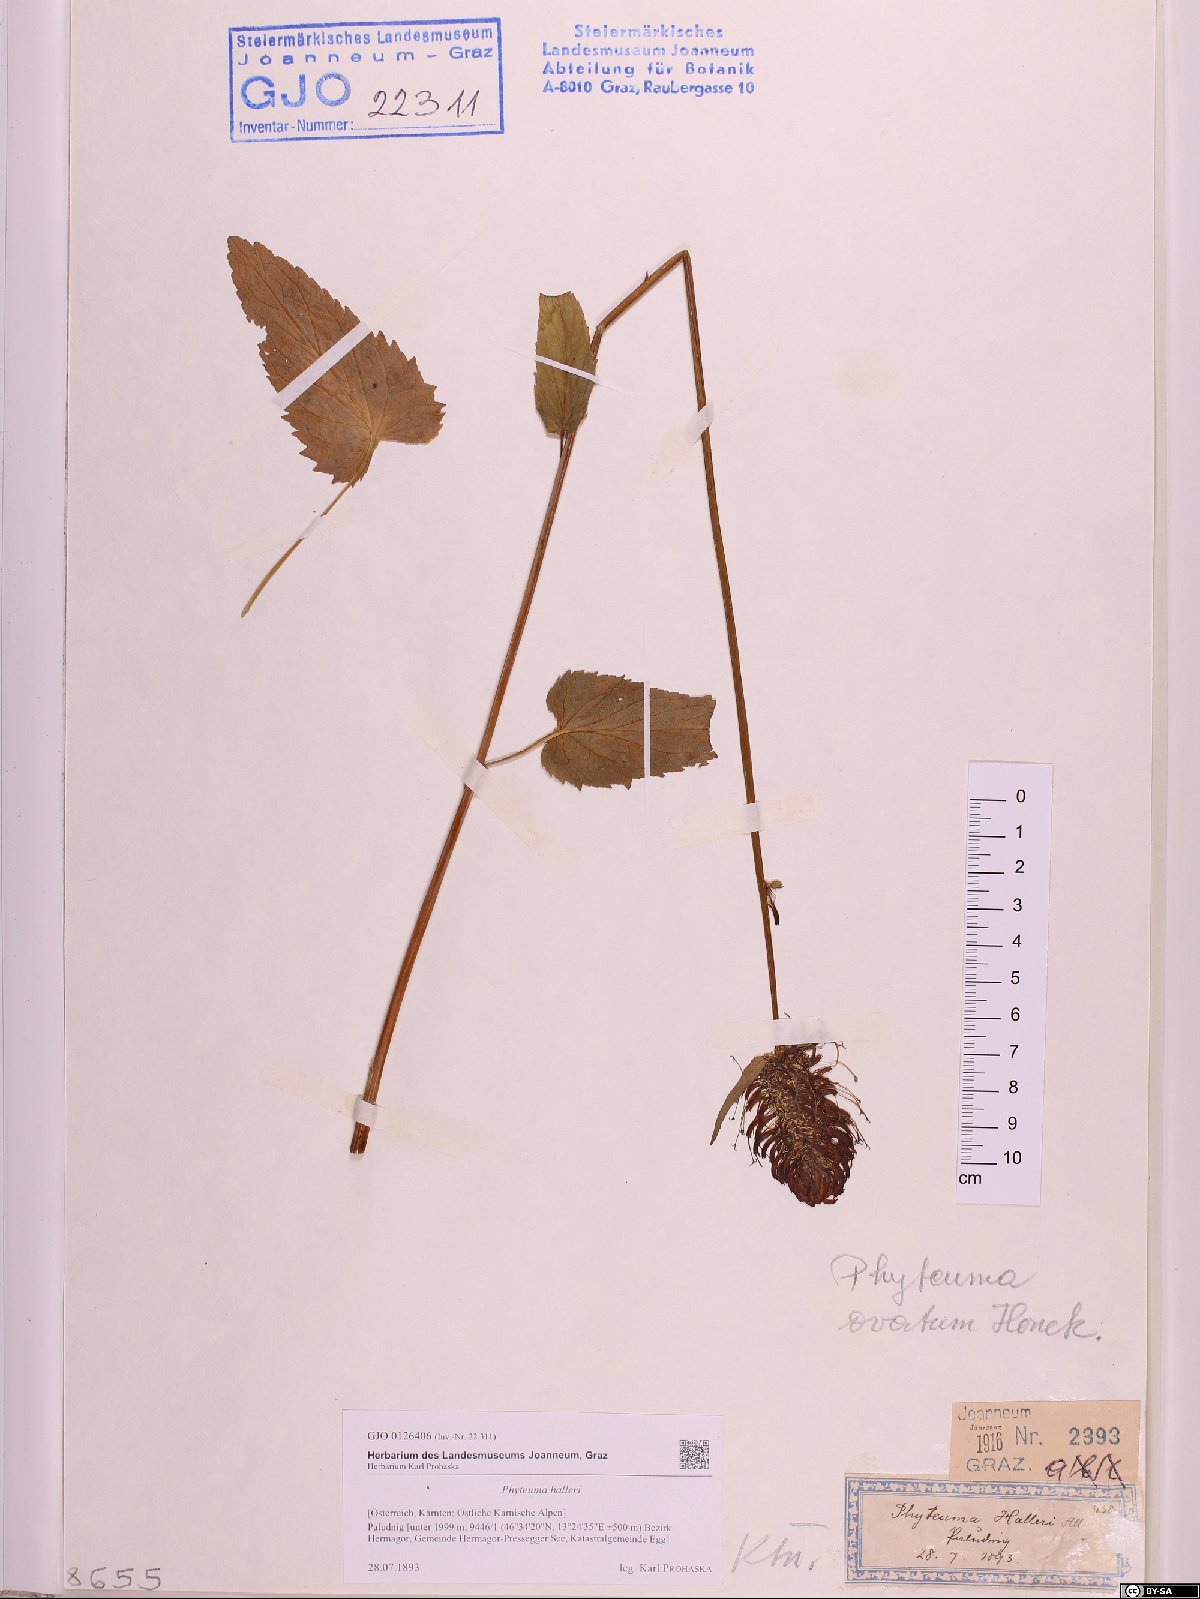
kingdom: Plantae
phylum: Tracheophyta
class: Magnoliopsida
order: Asterales
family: Campanulaceae
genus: Phyteuma
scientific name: Phyteuma ovatum
